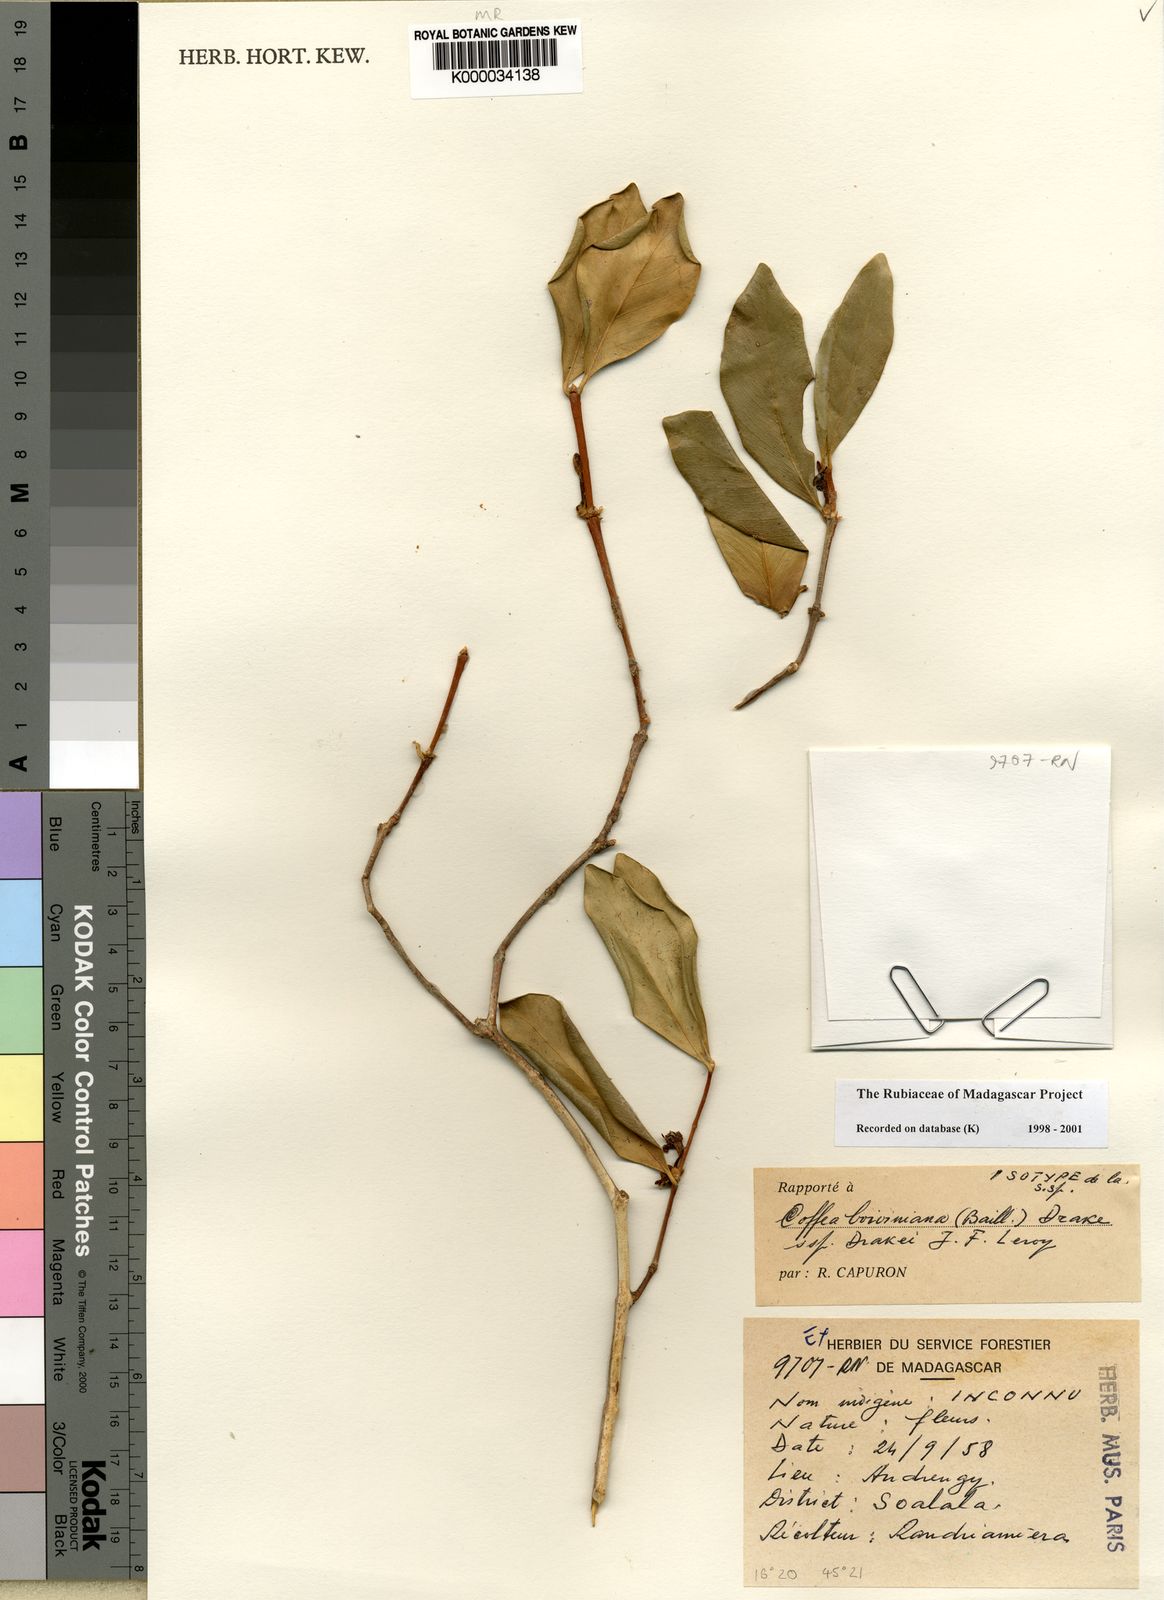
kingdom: Plantae
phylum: Tracheophyta
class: Magnoliopsida
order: Gentianales
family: Rubiaceae
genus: Coffea
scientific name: Coffea boiviniana
